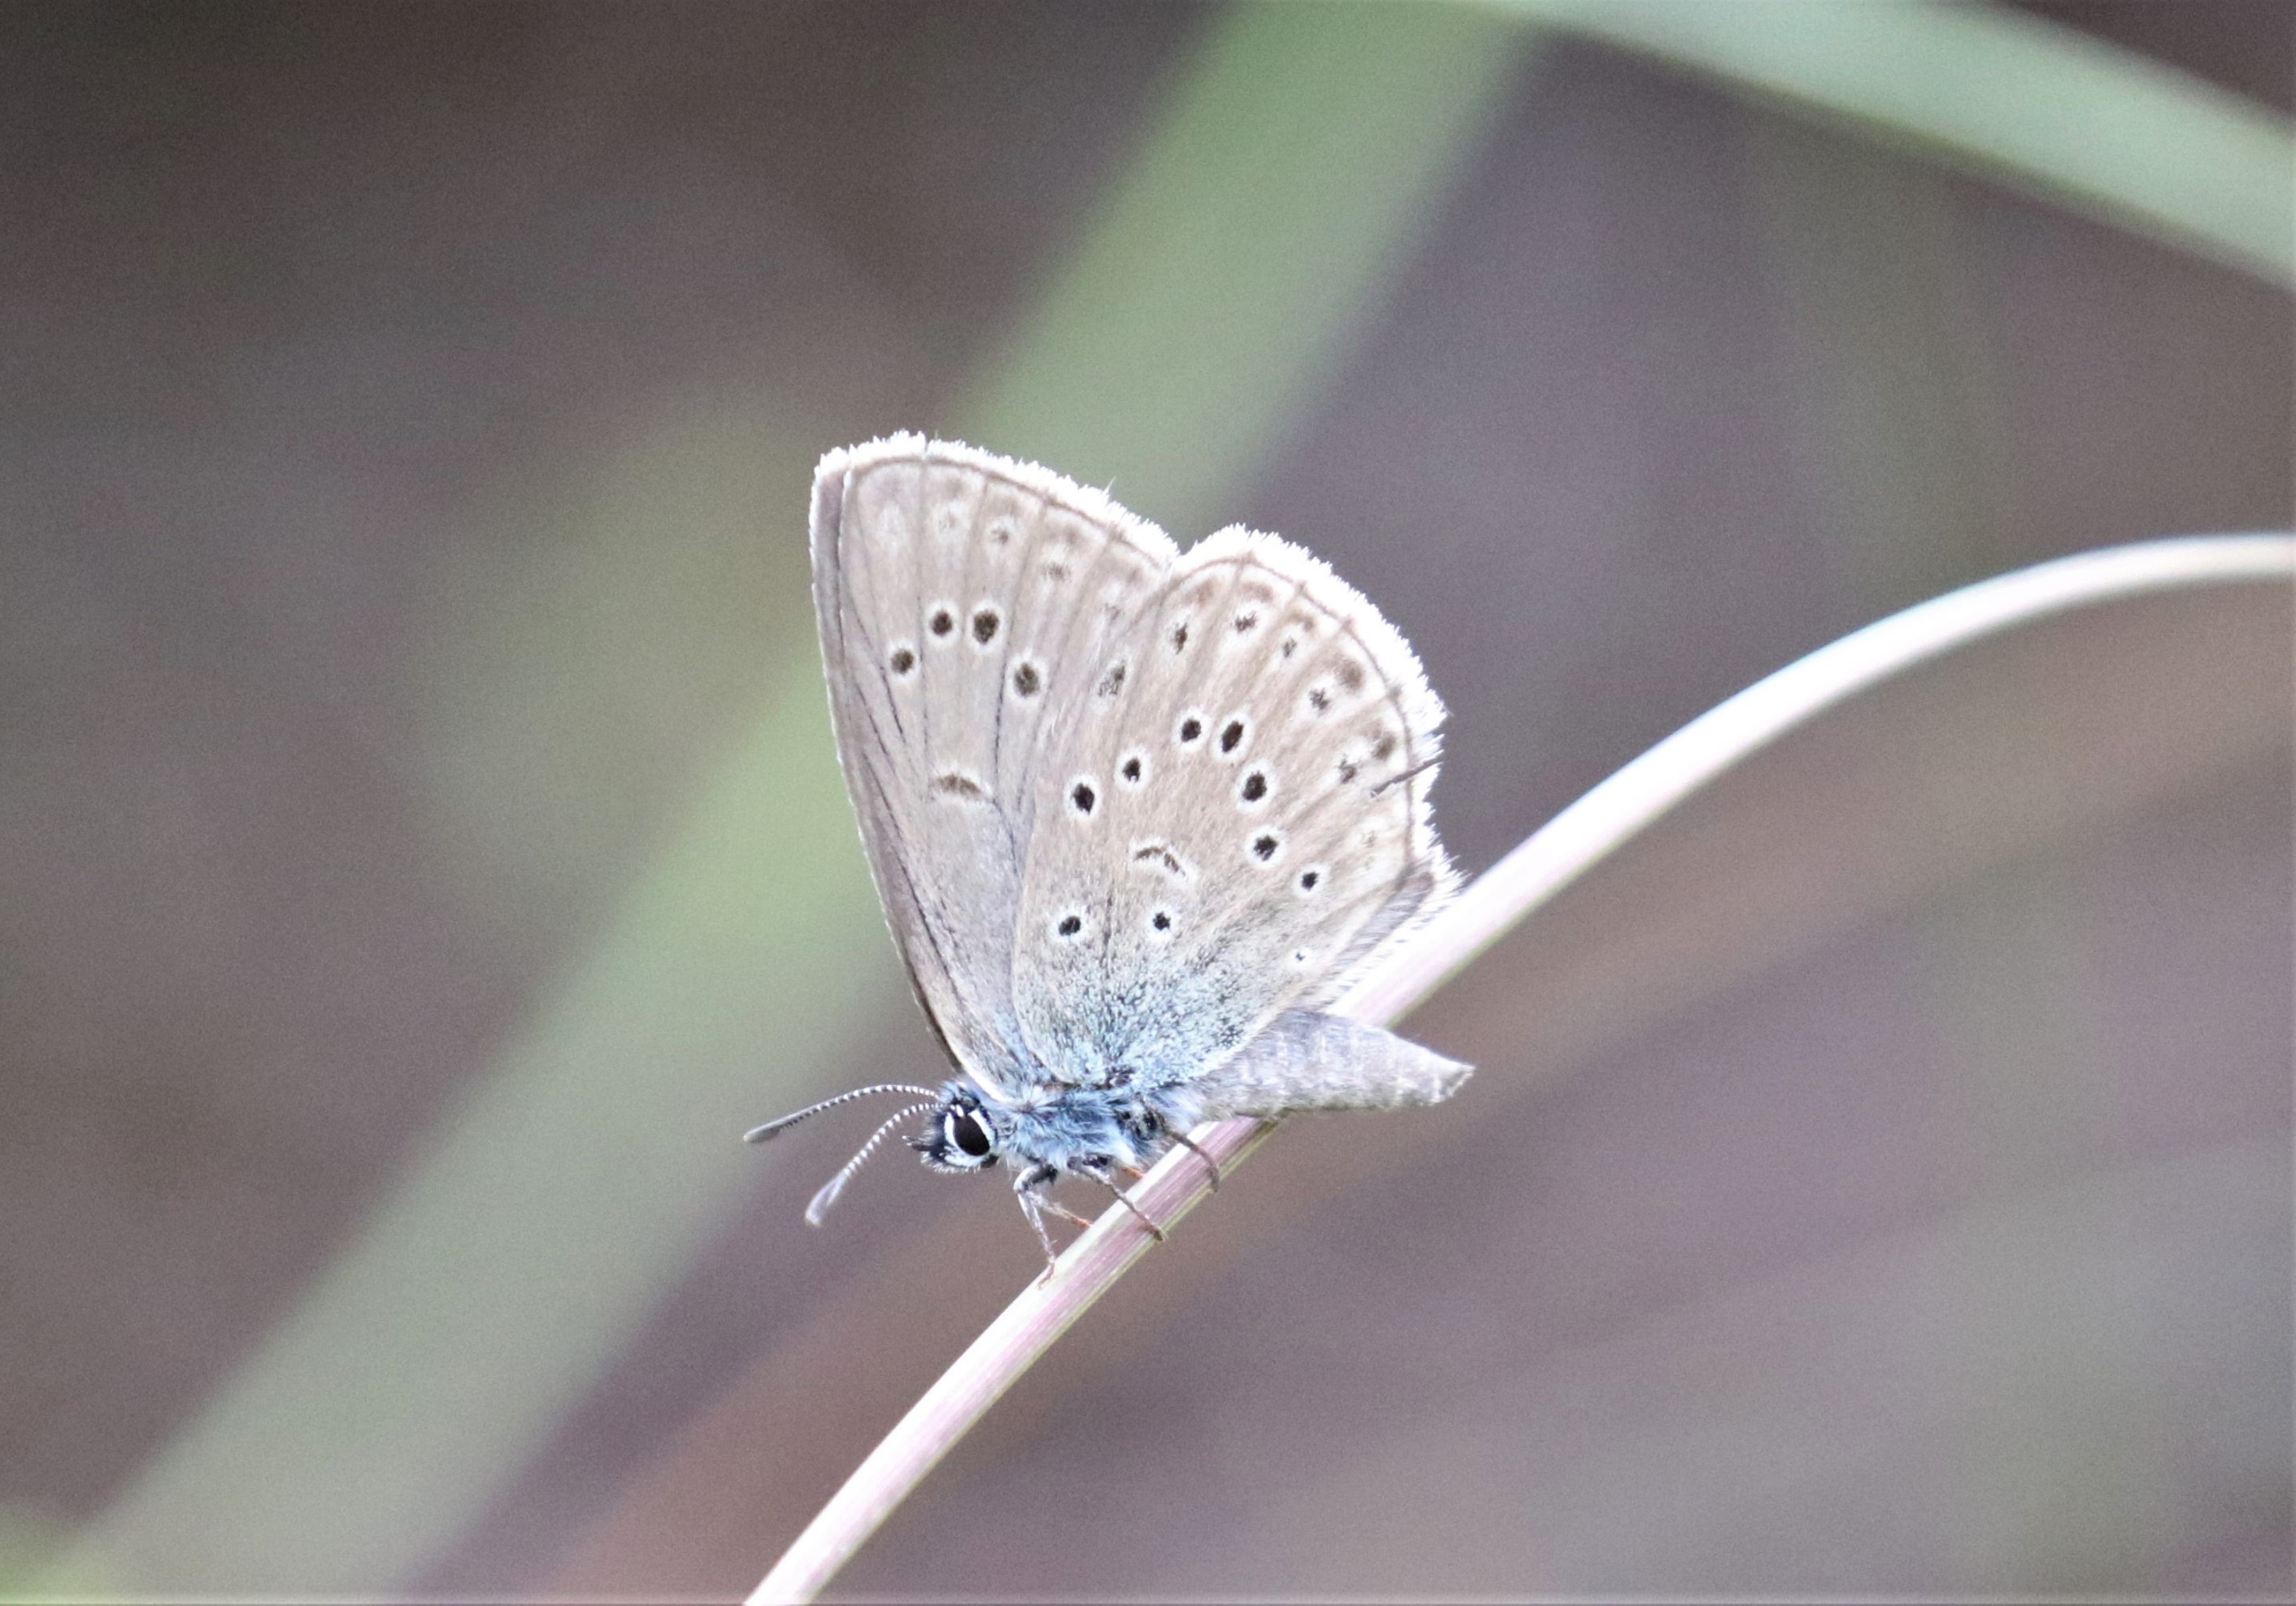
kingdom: Animalia
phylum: Arthropoda
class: Insecta
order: Lepidoptera
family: Lycaenidae
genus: Maculinea
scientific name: Maculinea alcon
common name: Ensianblåfugl
